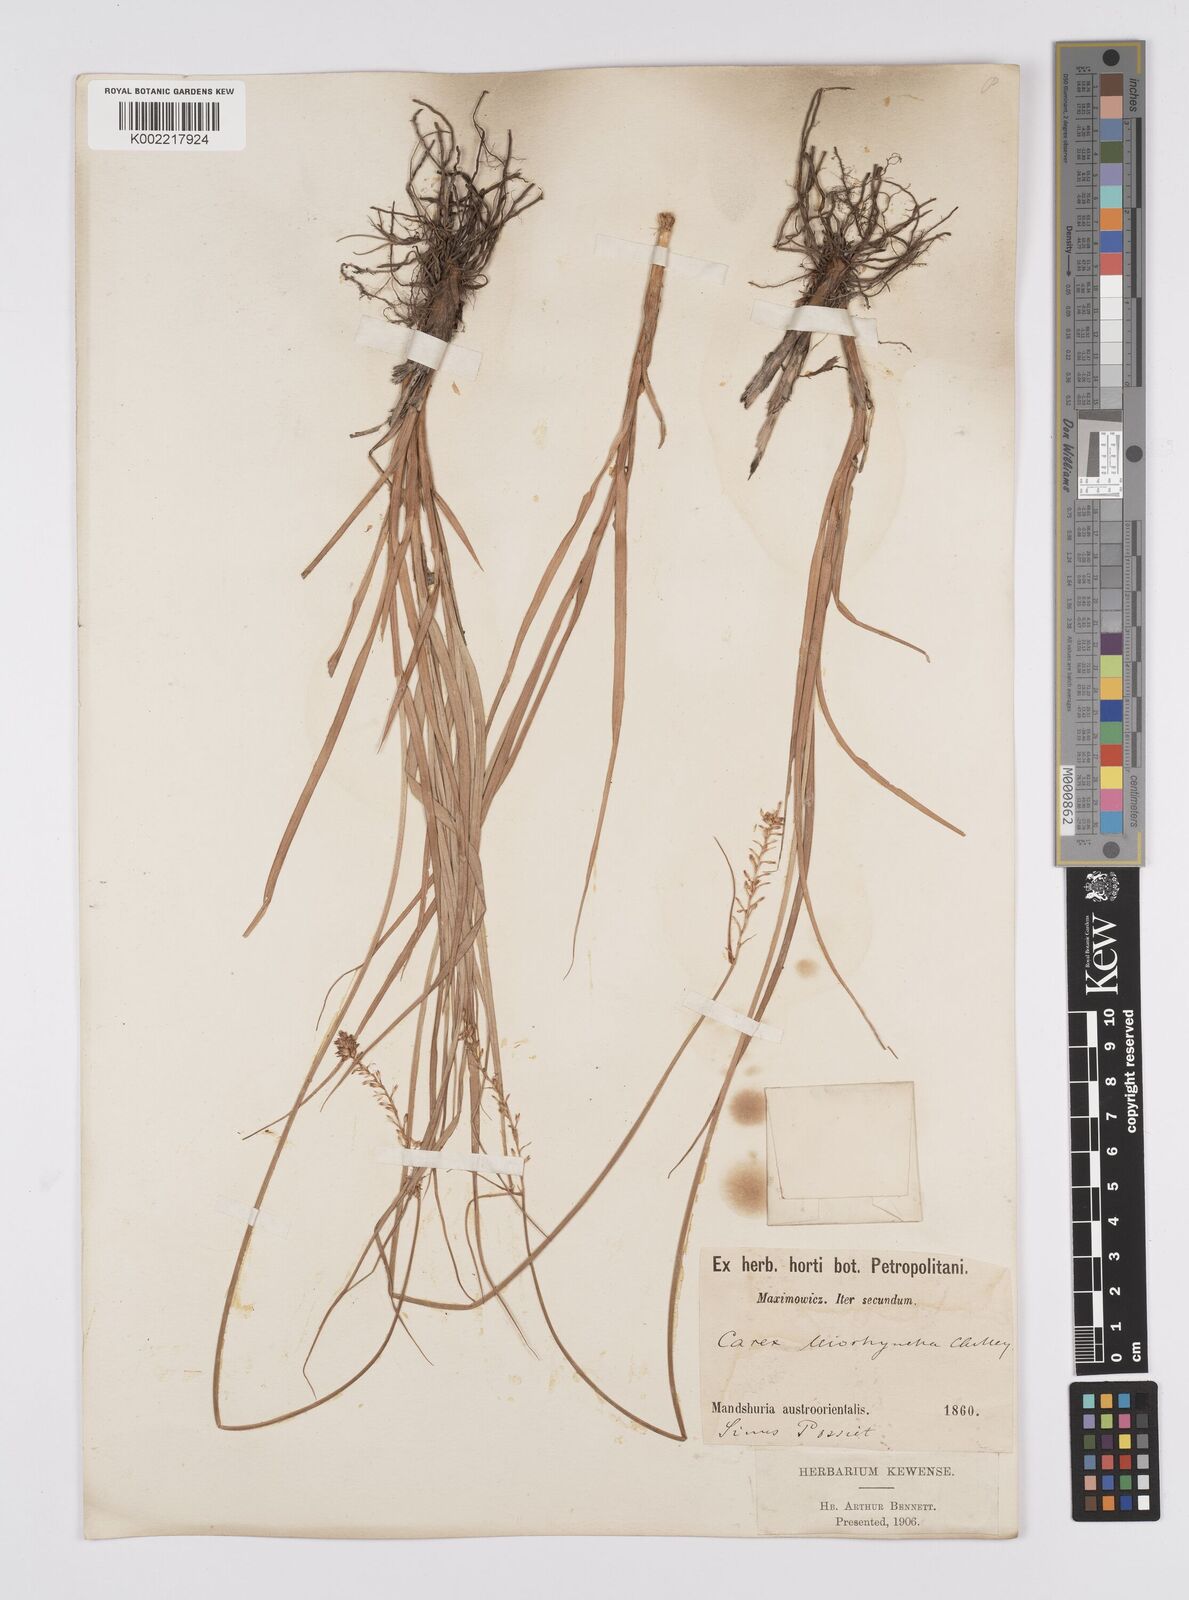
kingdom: Plantae
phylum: Tracheophyta
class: Liliopsida
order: Poales
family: Cyperaceae
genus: Carex
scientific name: Carex leiorhyncha
